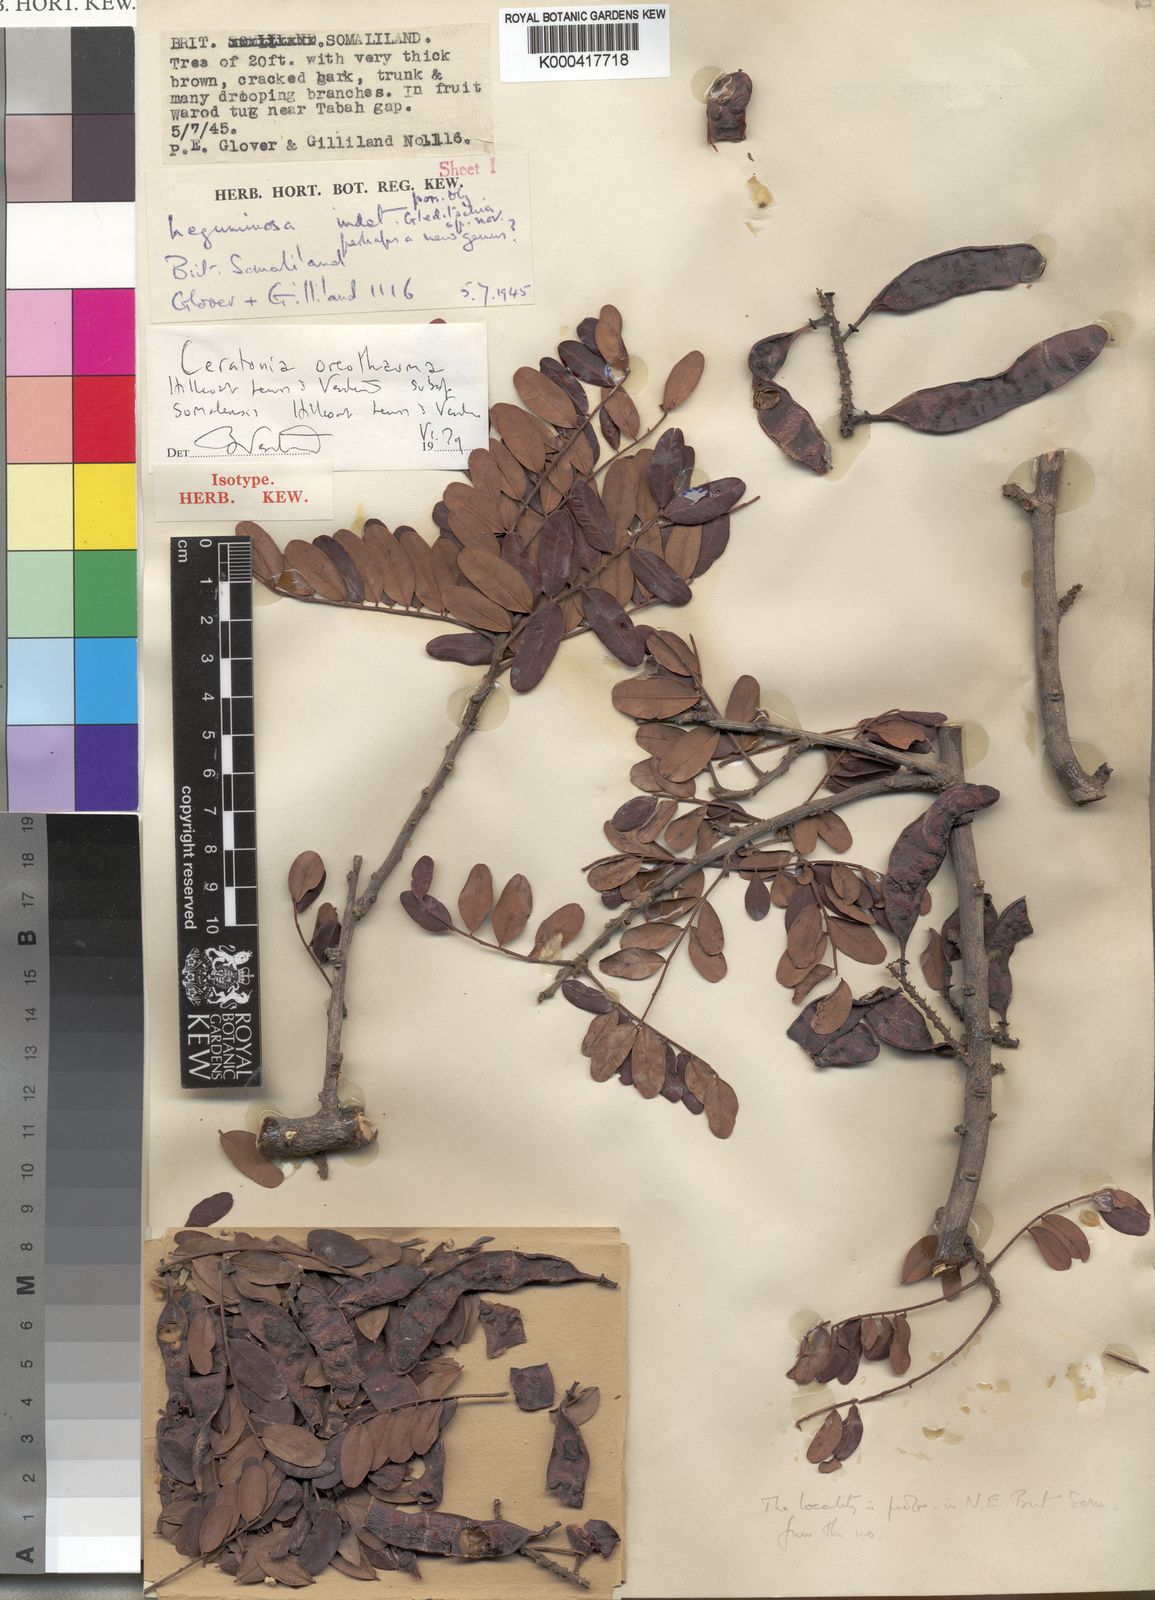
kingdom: Plantae
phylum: Tracheophyta
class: Magnoliopsida
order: Fabales
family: Fabaceae
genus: Ceratonia
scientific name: Ceratonia oreothauma
